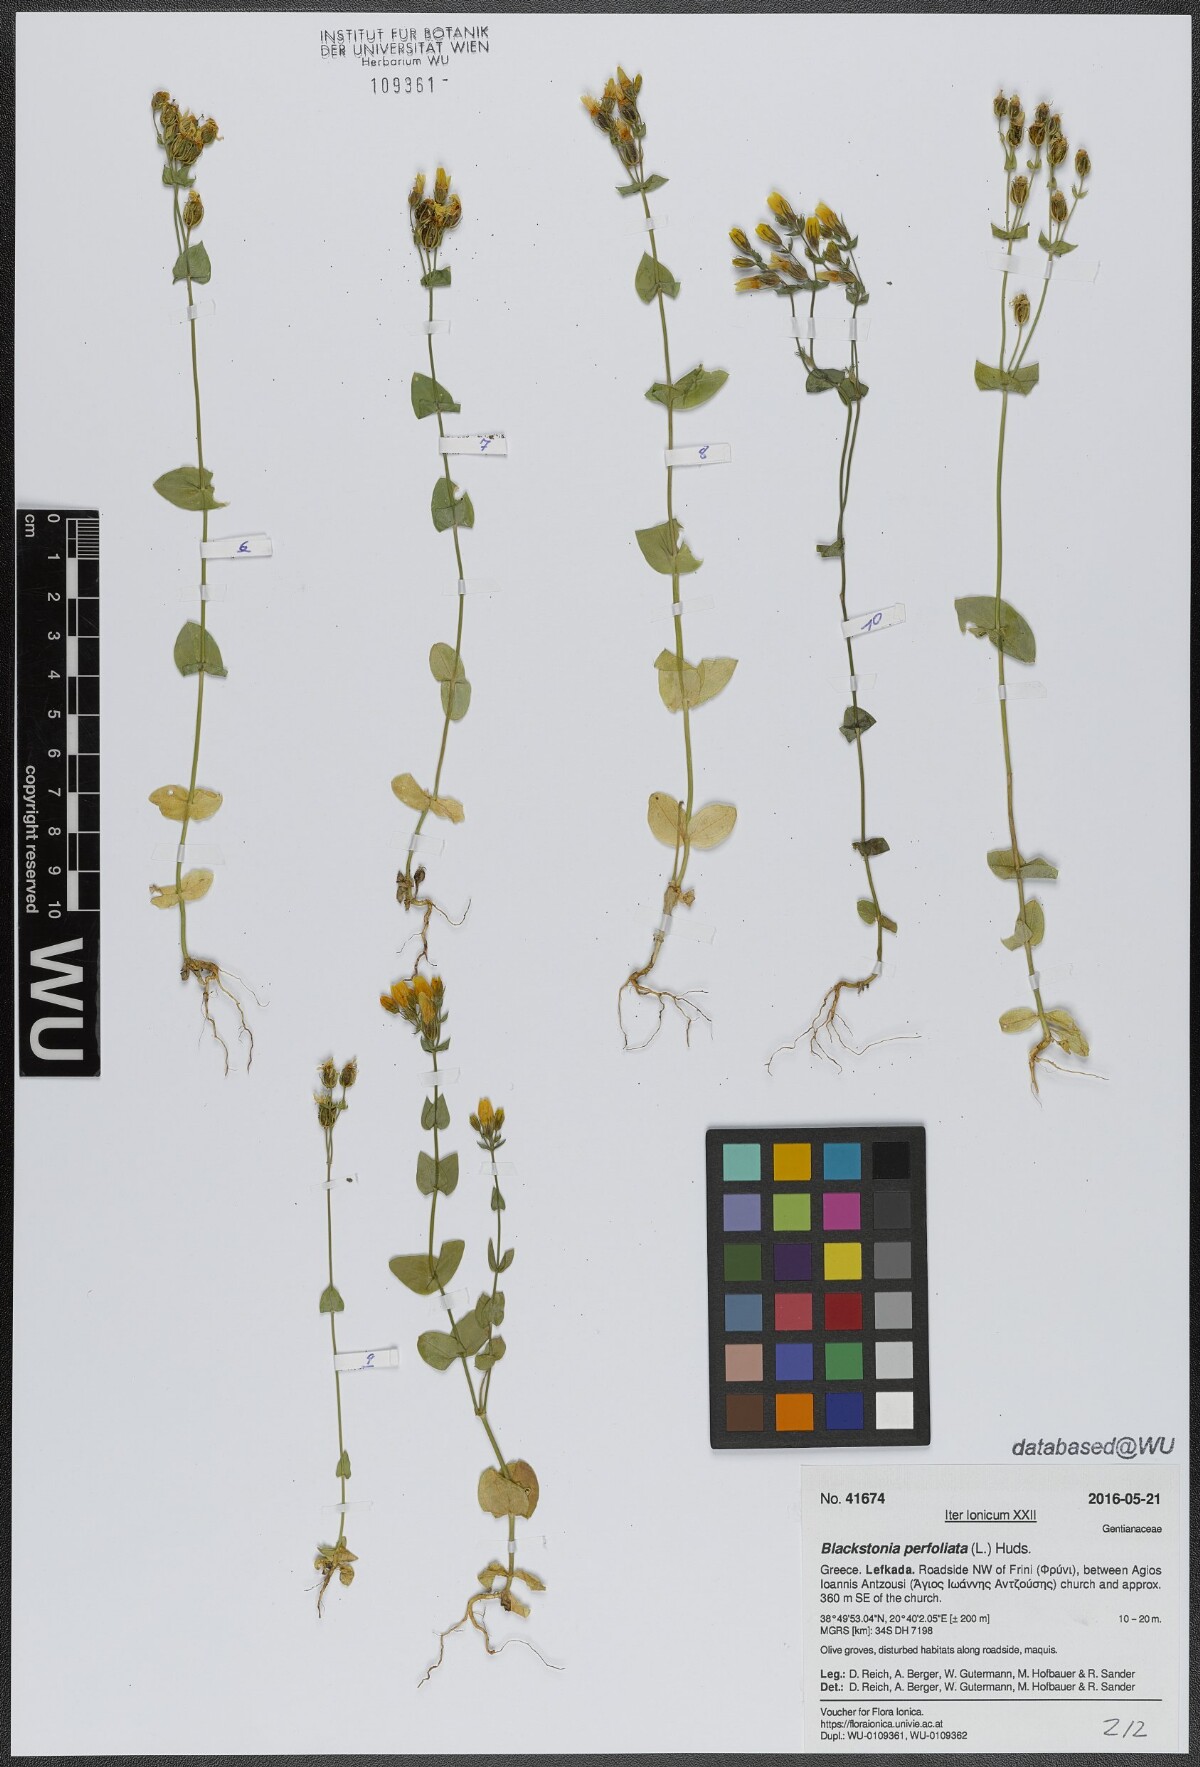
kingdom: Plantae
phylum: Tracheophyta
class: Magnoliopsida
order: Gentianales
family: Gentianaceae
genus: Blackstonia
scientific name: Blackstonia perfoliata
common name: Yellow-wort
